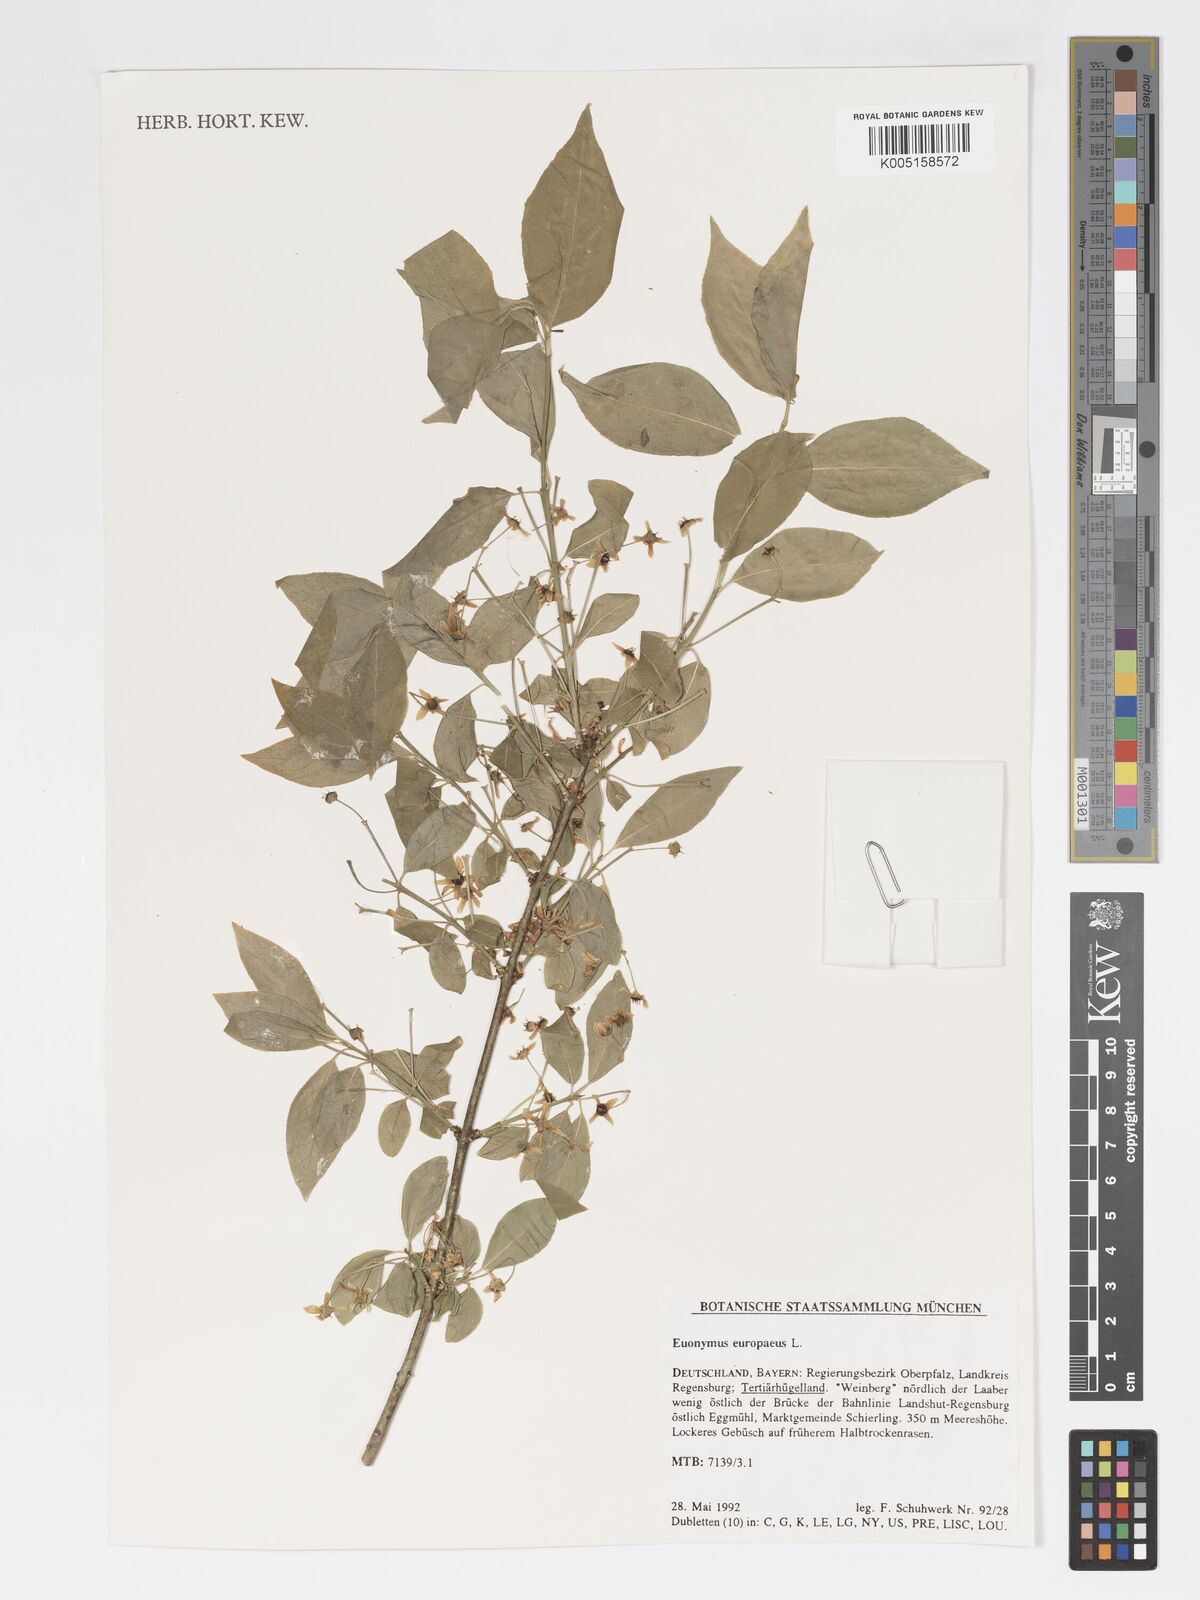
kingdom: Plantae
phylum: Tracheophyta
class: Magnoliopsida
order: Celastrales
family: Celastraceae
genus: Euonymus
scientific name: Euonymus europaeus
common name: Spindle
